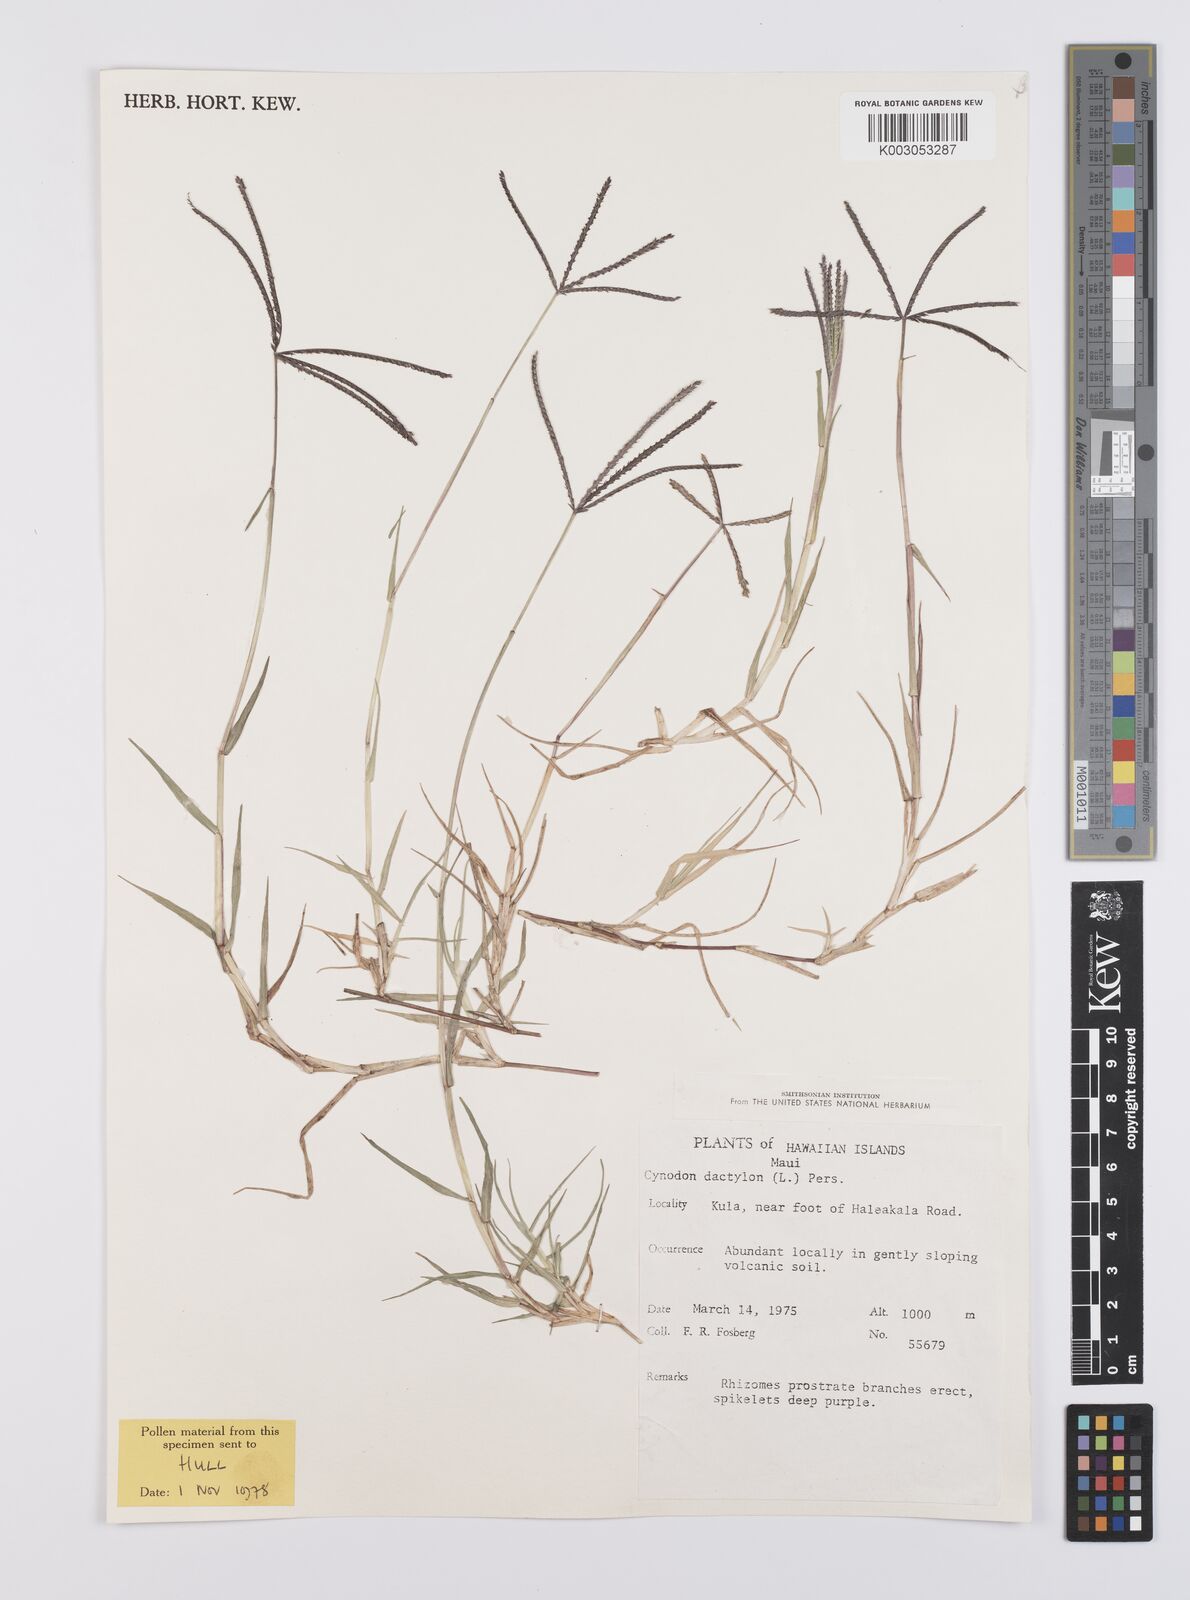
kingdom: Plantae
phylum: Tracheophyta
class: Liliopsida
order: Poales
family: Poaceae
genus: Cynodon
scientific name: Cynodon dactylon
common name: Bermuda grass
